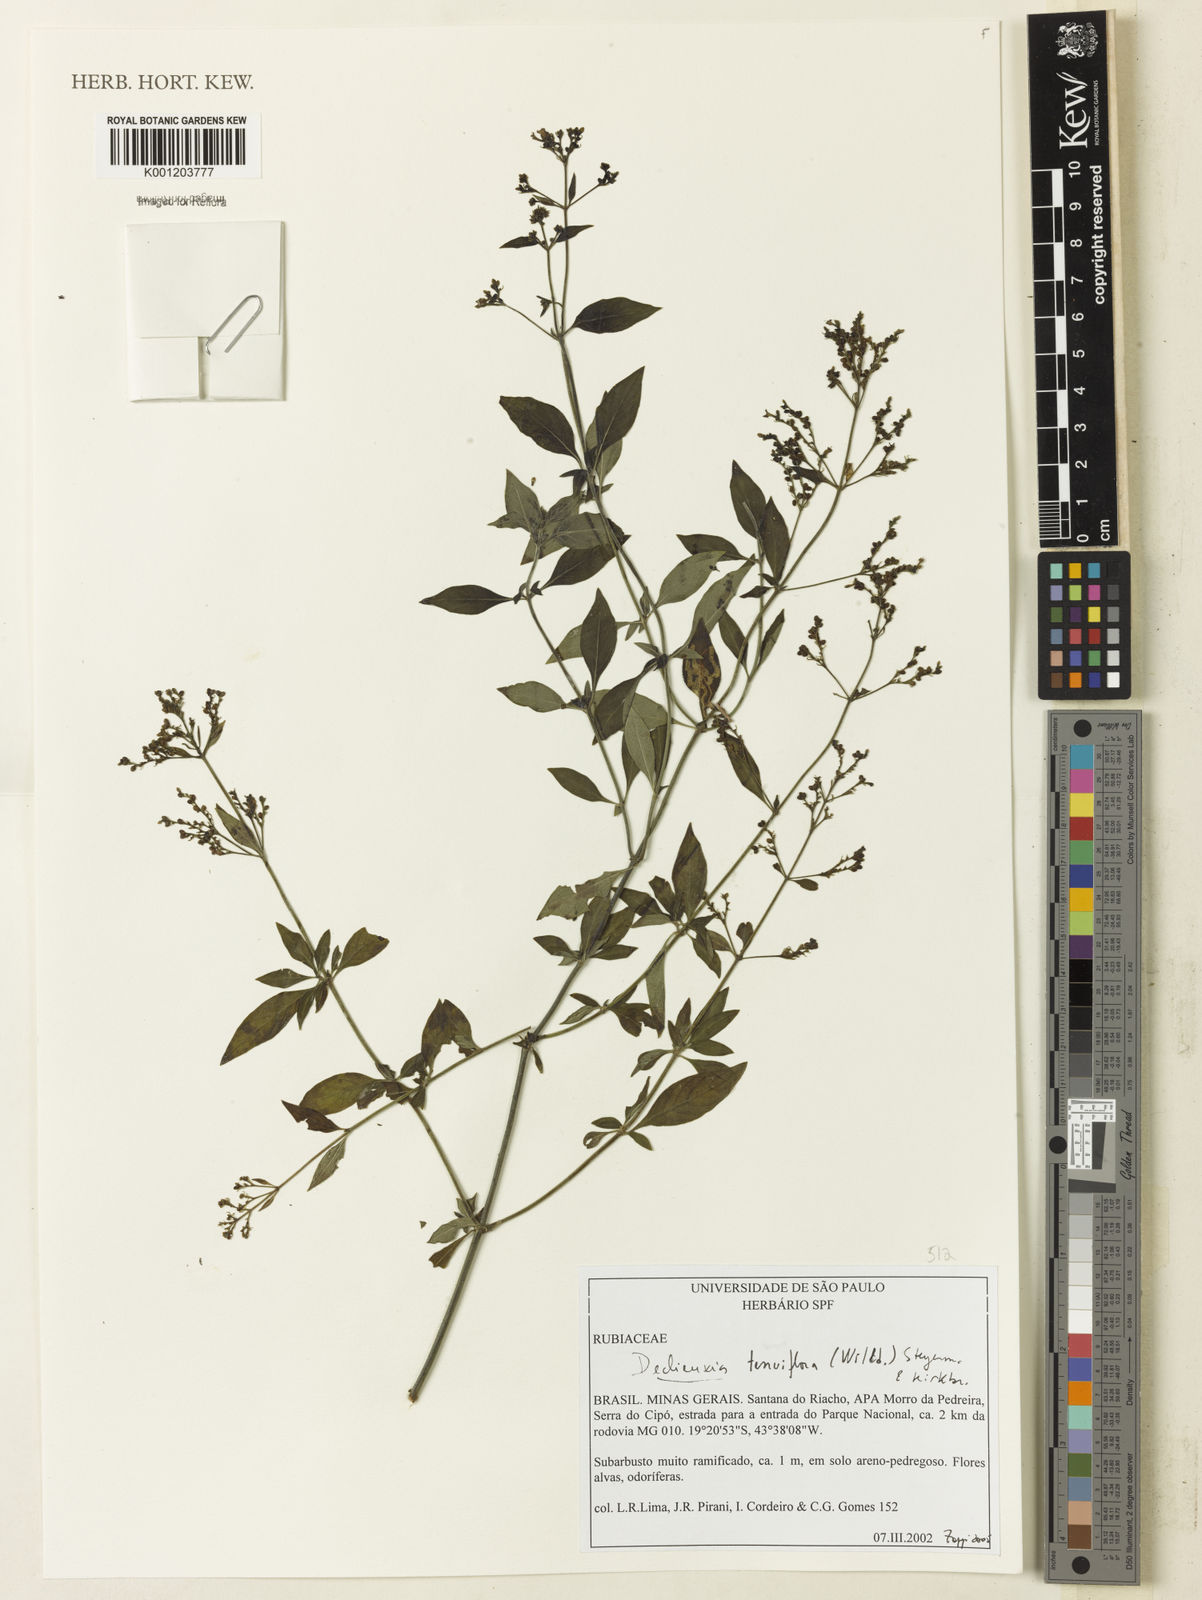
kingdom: Plantae
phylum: Tracheophyta
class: Magnoliopsida
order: Gentianales
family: Rubiaceae
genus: Declieuxia
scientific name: Declieuxia tenuiflora
